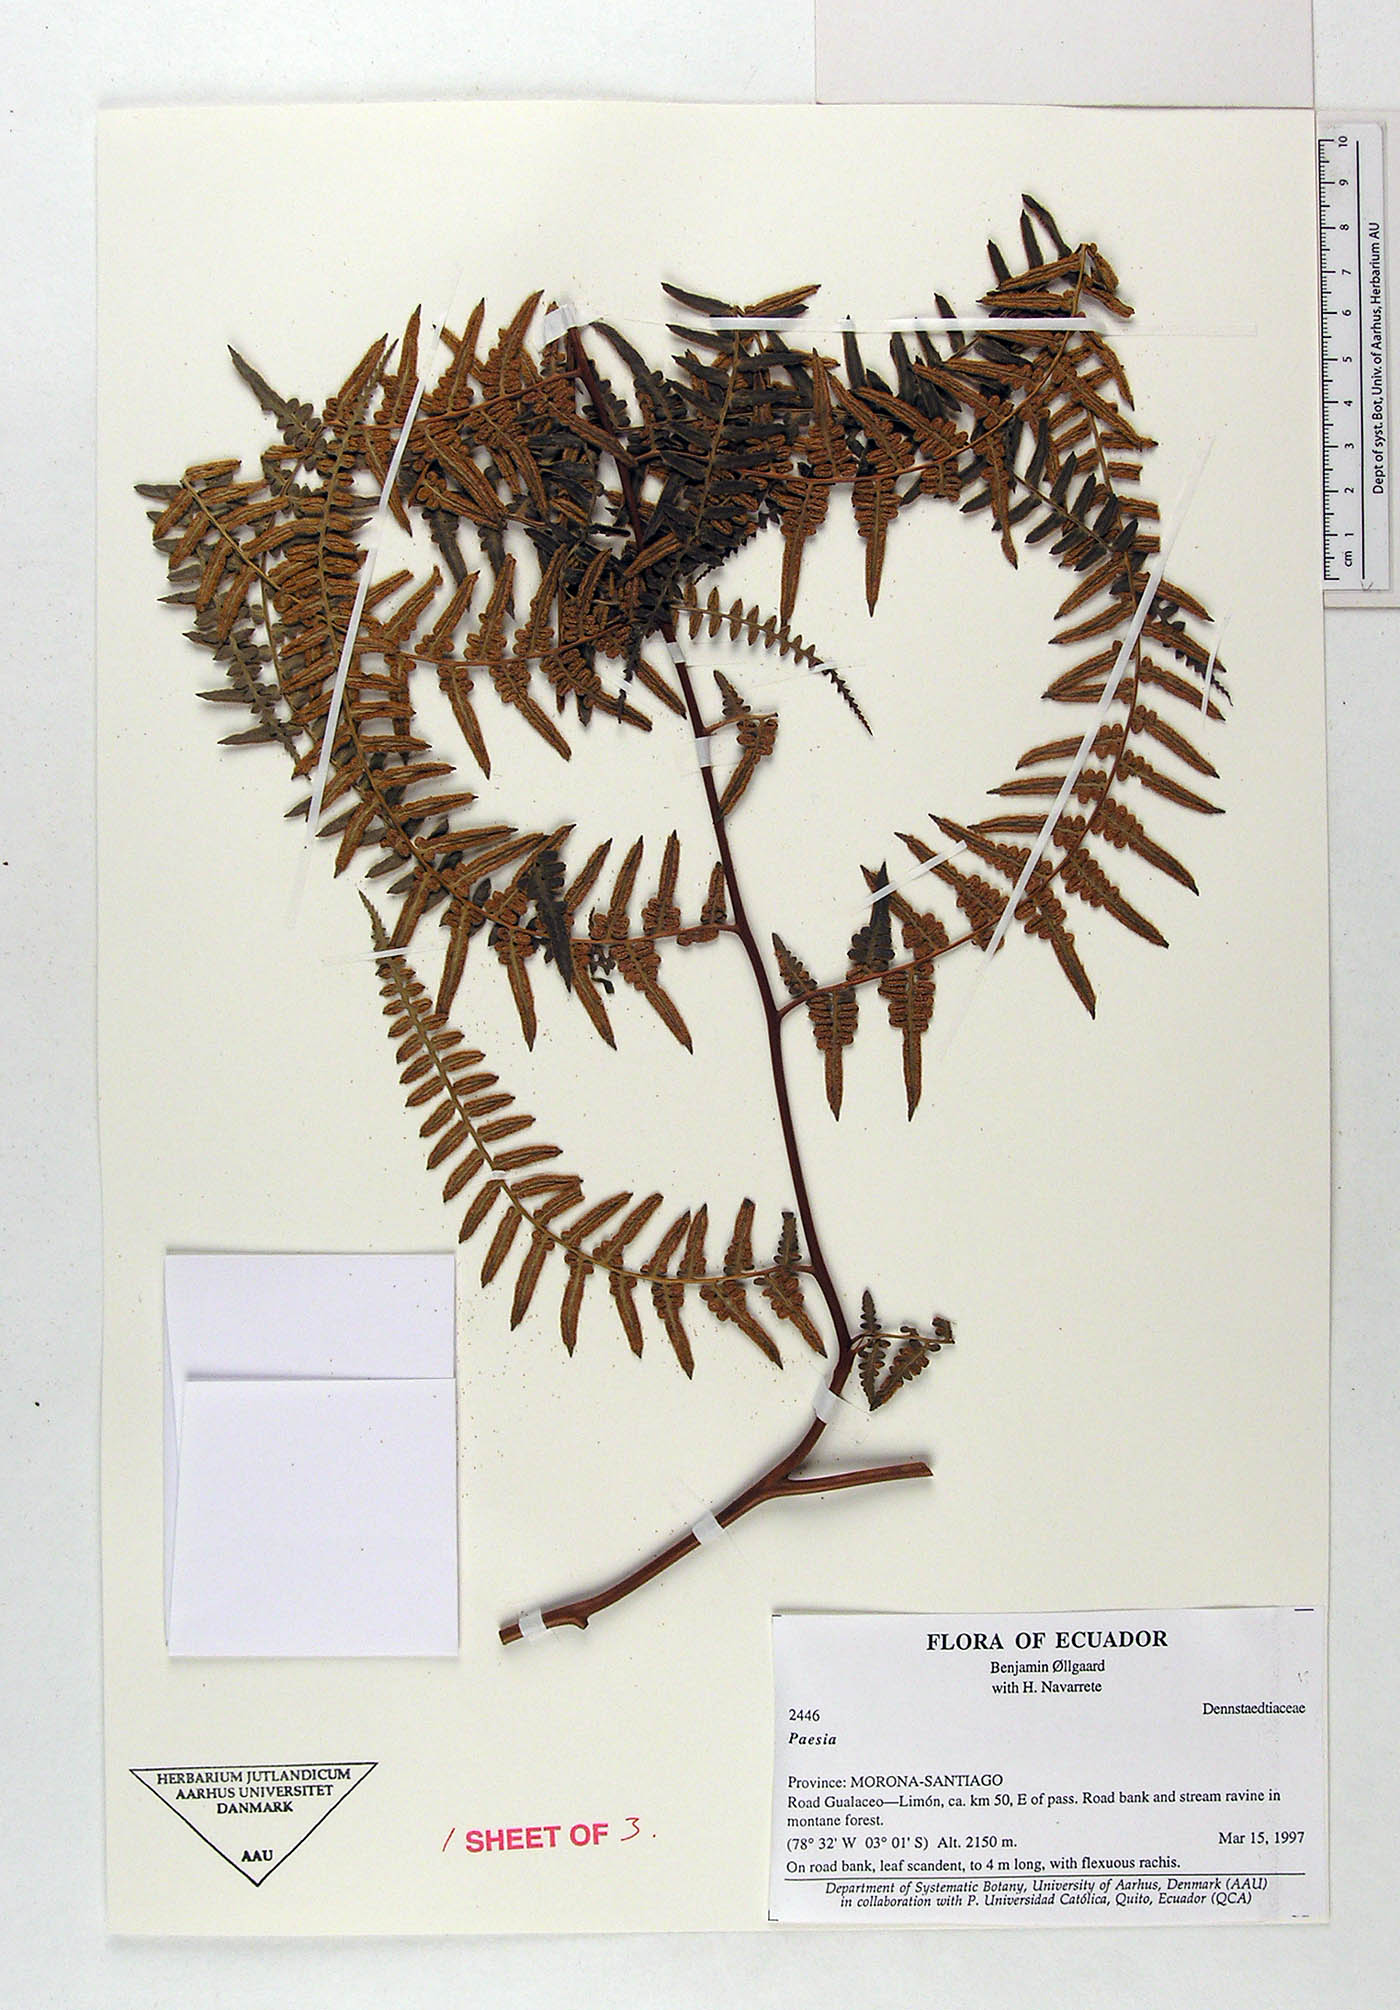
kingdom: Plantae
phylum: Tracheophyta
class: Polypodiopsida
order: Polypodiales
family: Dennstaedtiaceae
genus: Paesia
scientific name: Paesia glandulosa
